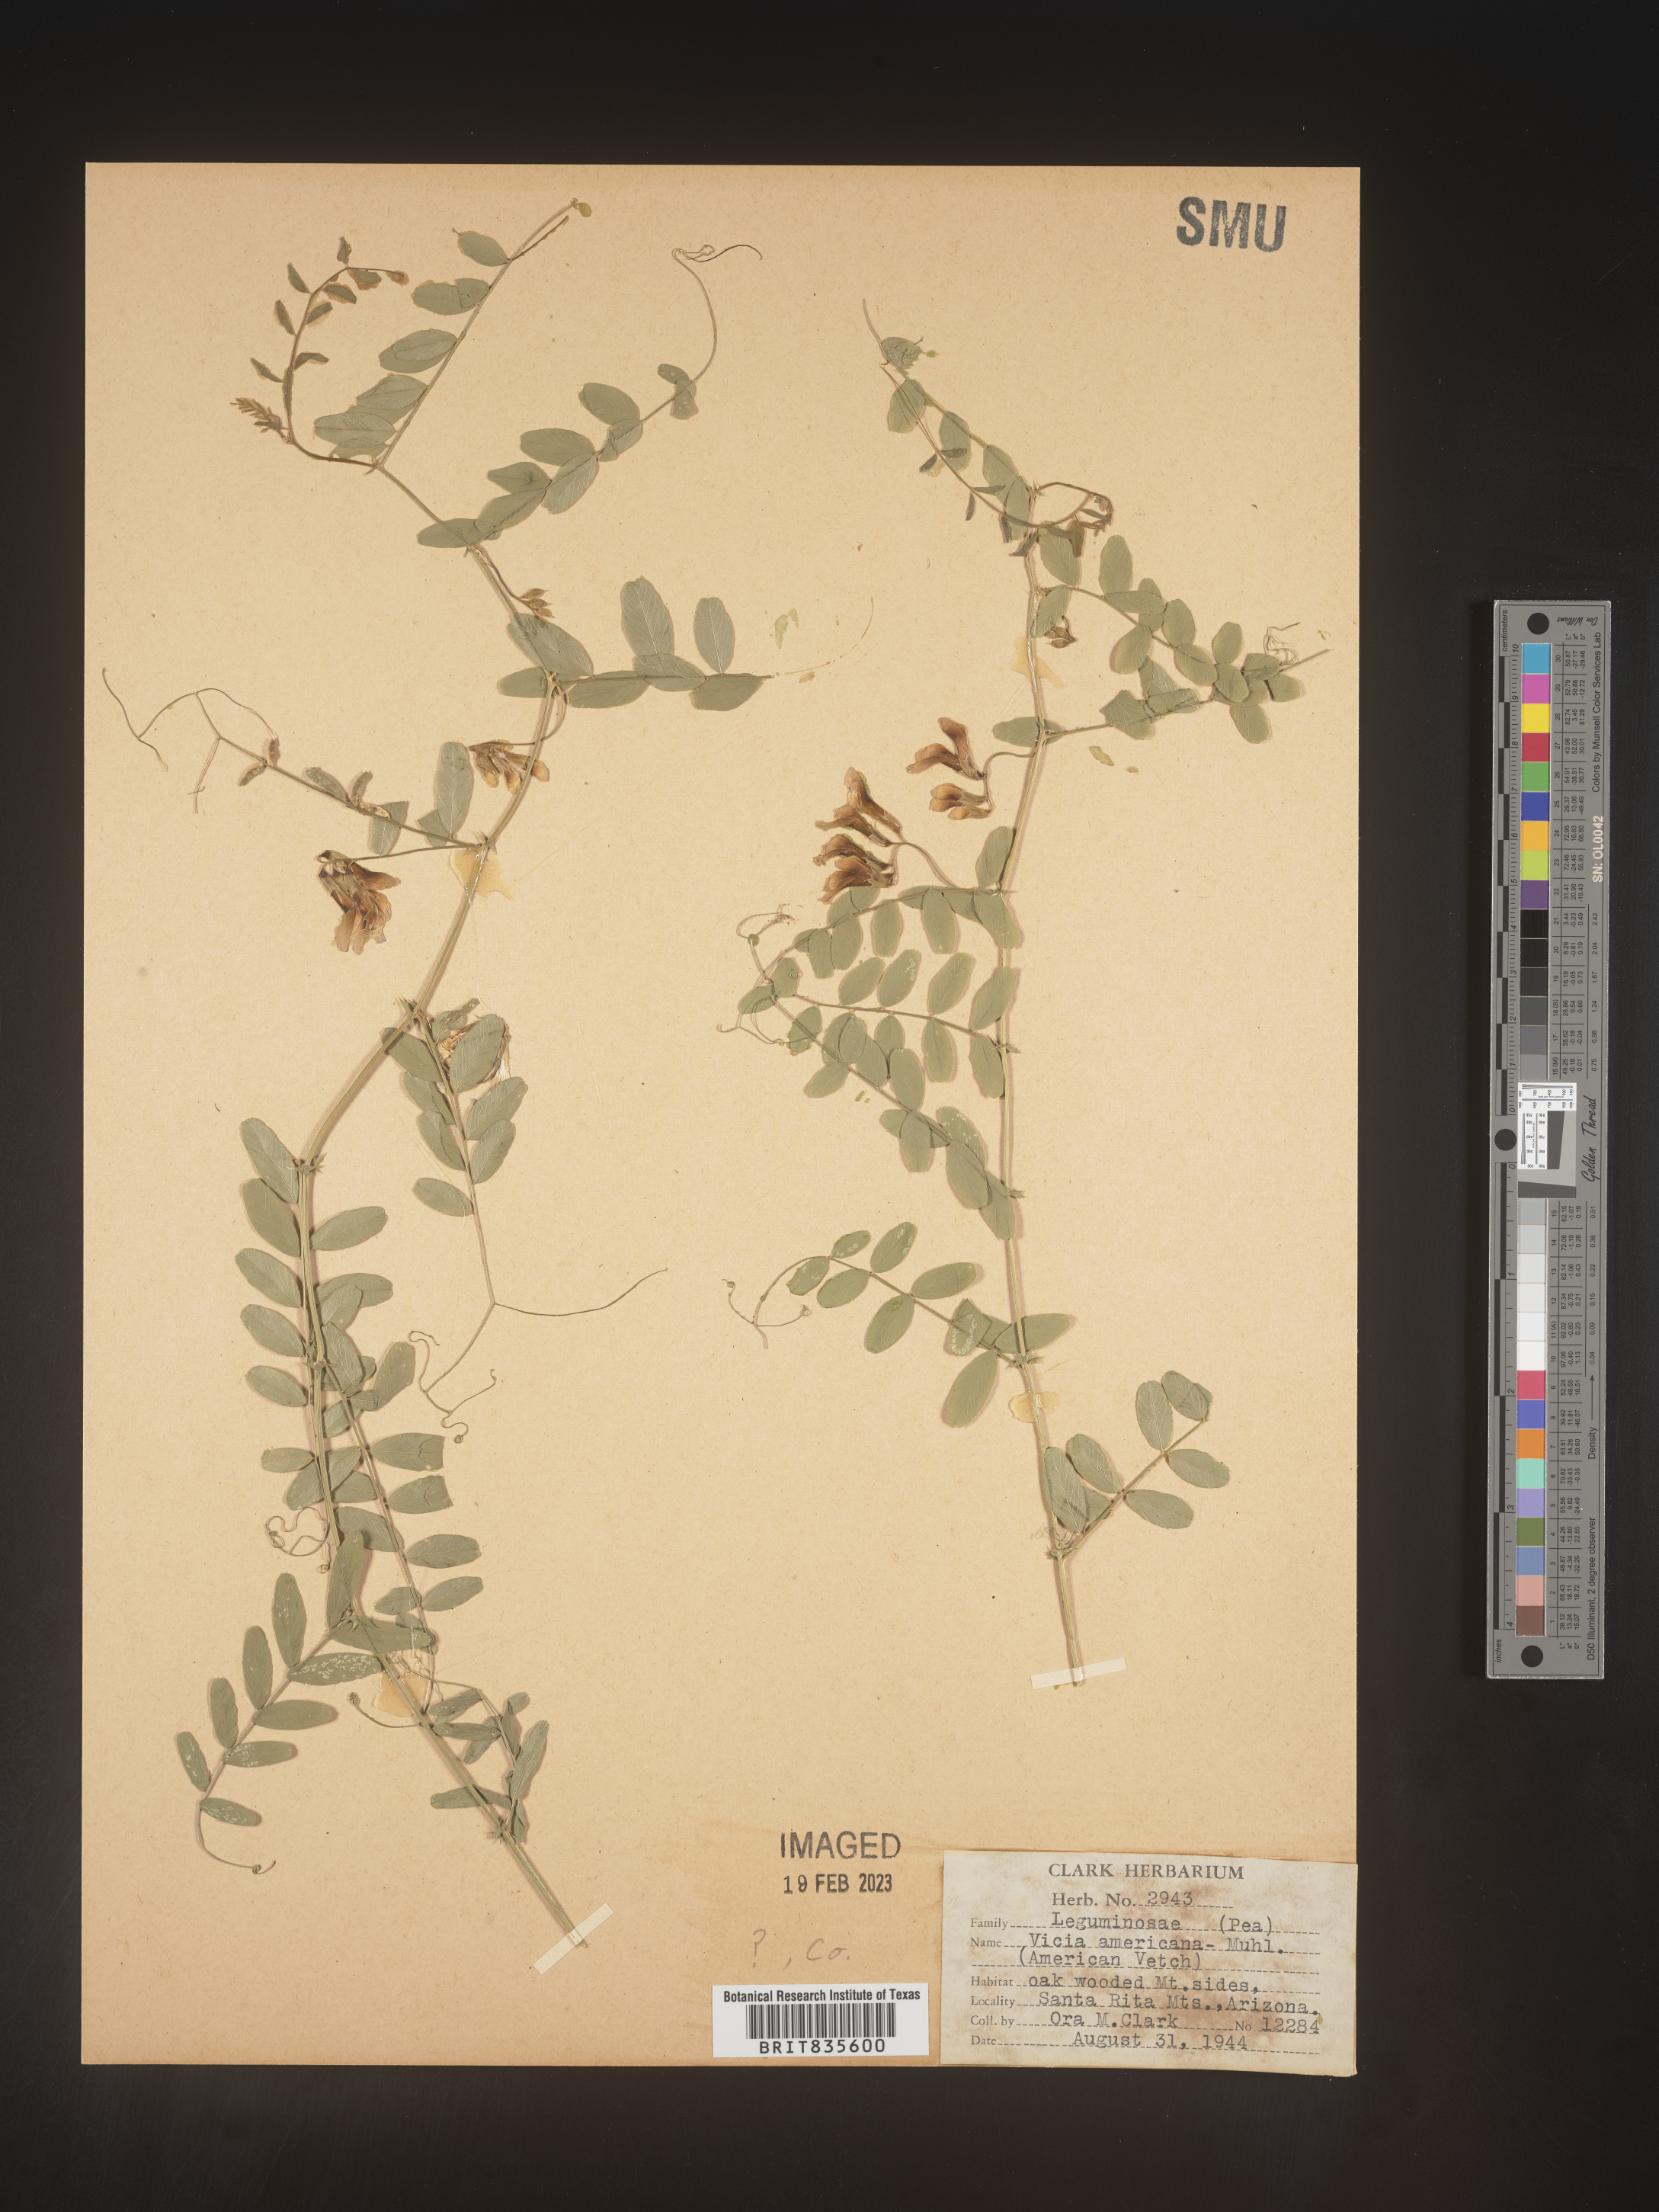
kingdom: Plantae
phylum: Tracheophyta
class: Magnoliopsida
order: Fabales
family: Fabaceae
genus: Vicia
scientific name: Vicia americana
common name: American vetch
